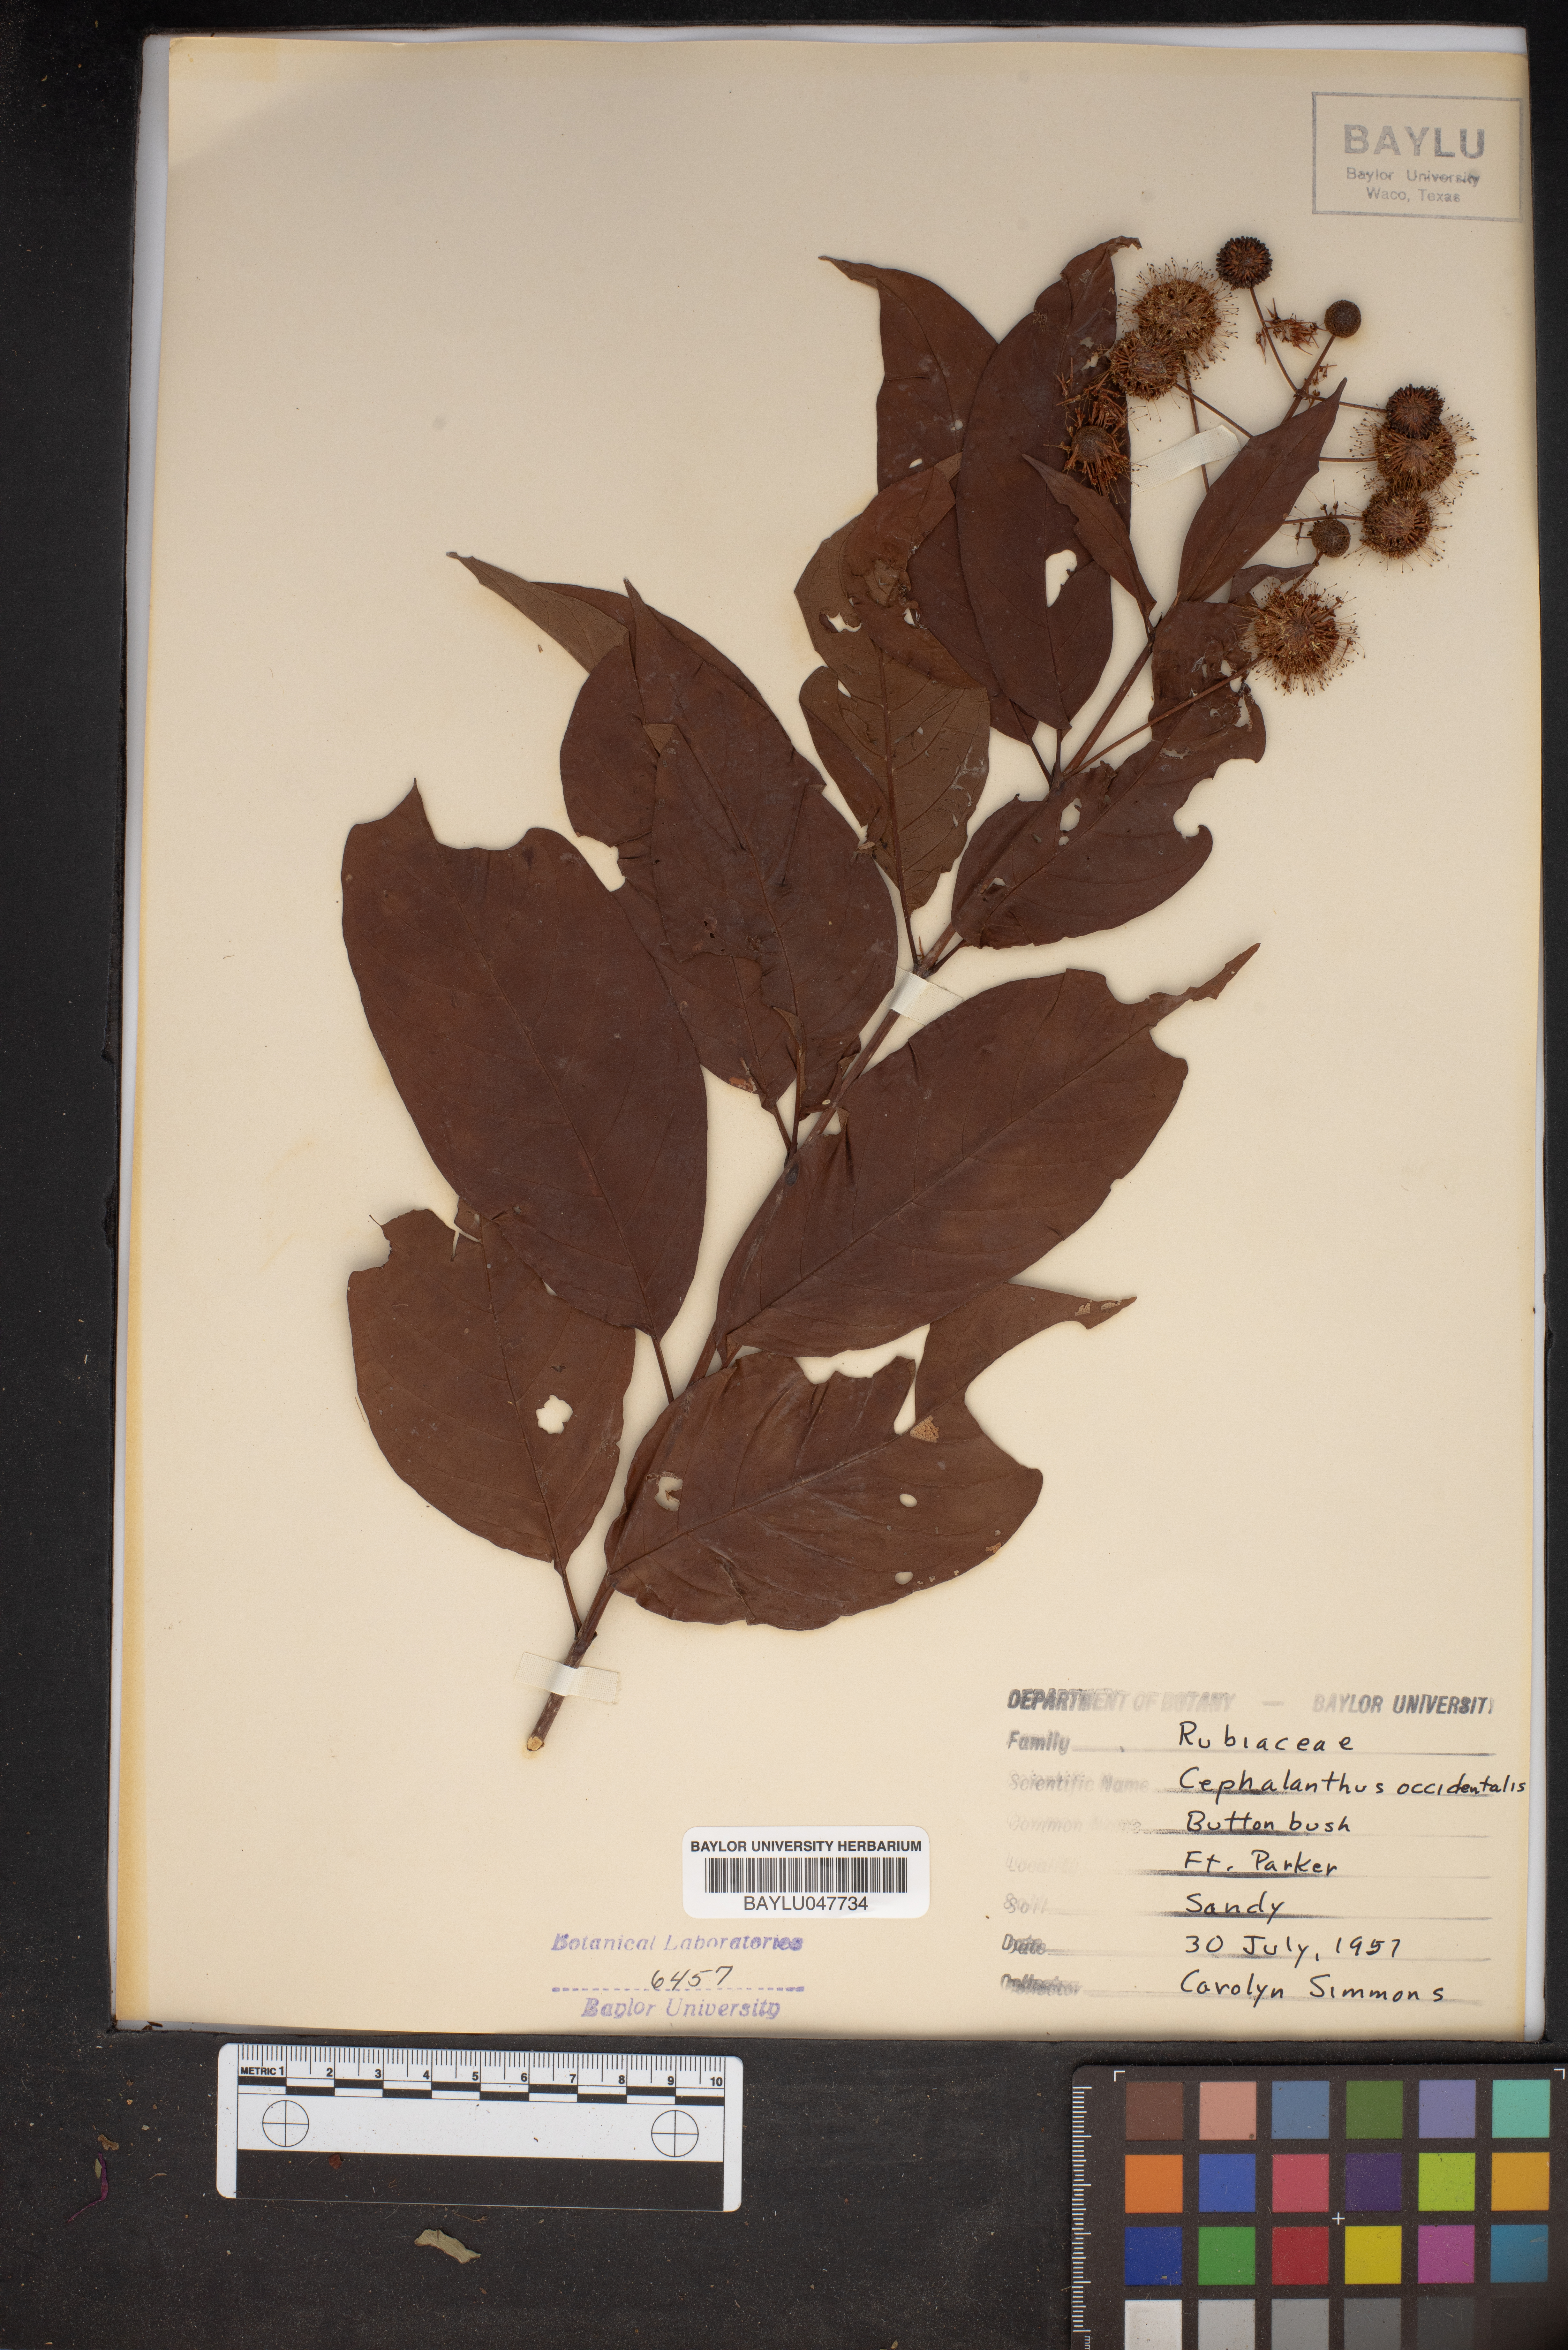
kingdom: Plantae
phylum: Tracheophyta
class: Magnoliopsida
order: Gentianales
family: Rubiaceae
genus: Cephalanthus
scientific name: Cephalanthus occidentalis
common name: Button-willow
